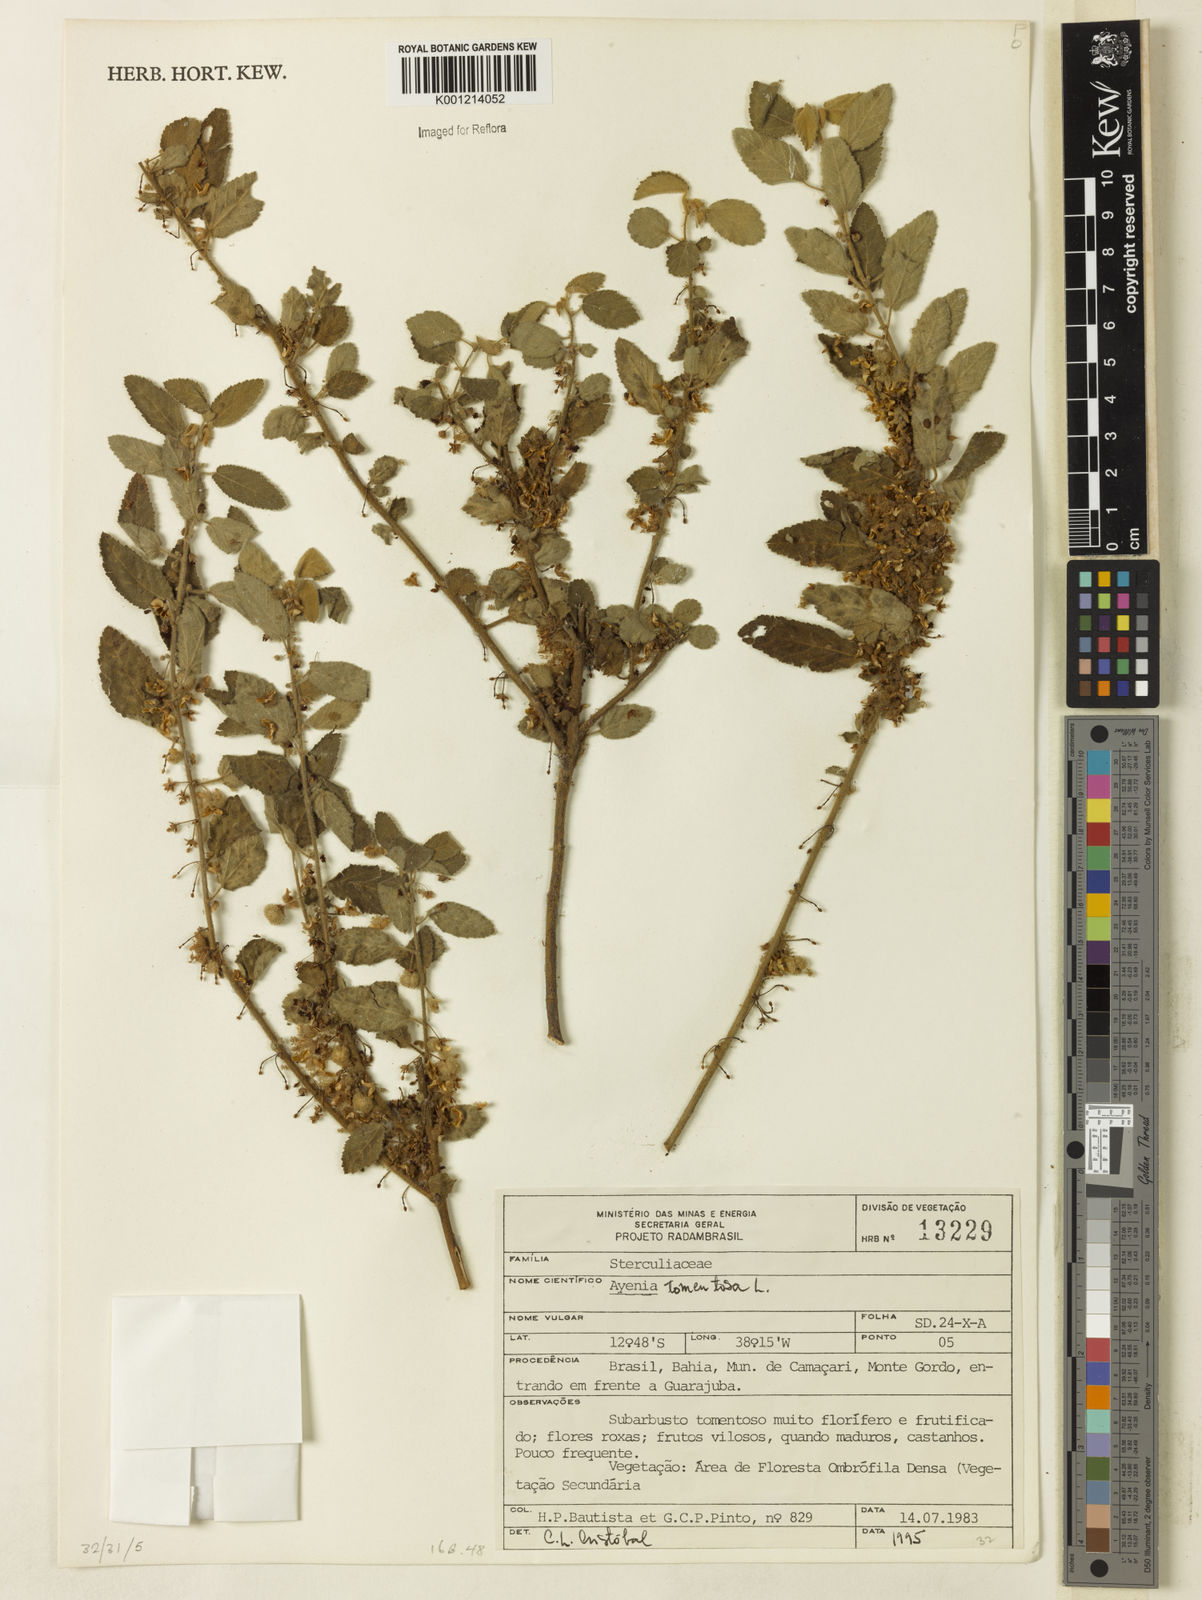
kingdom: Plantae
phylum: Tracheophyta
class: Magnoliopsida
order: Malvales
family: Malvaceae
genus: Ayenia
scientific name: Ayenia tomentosa
